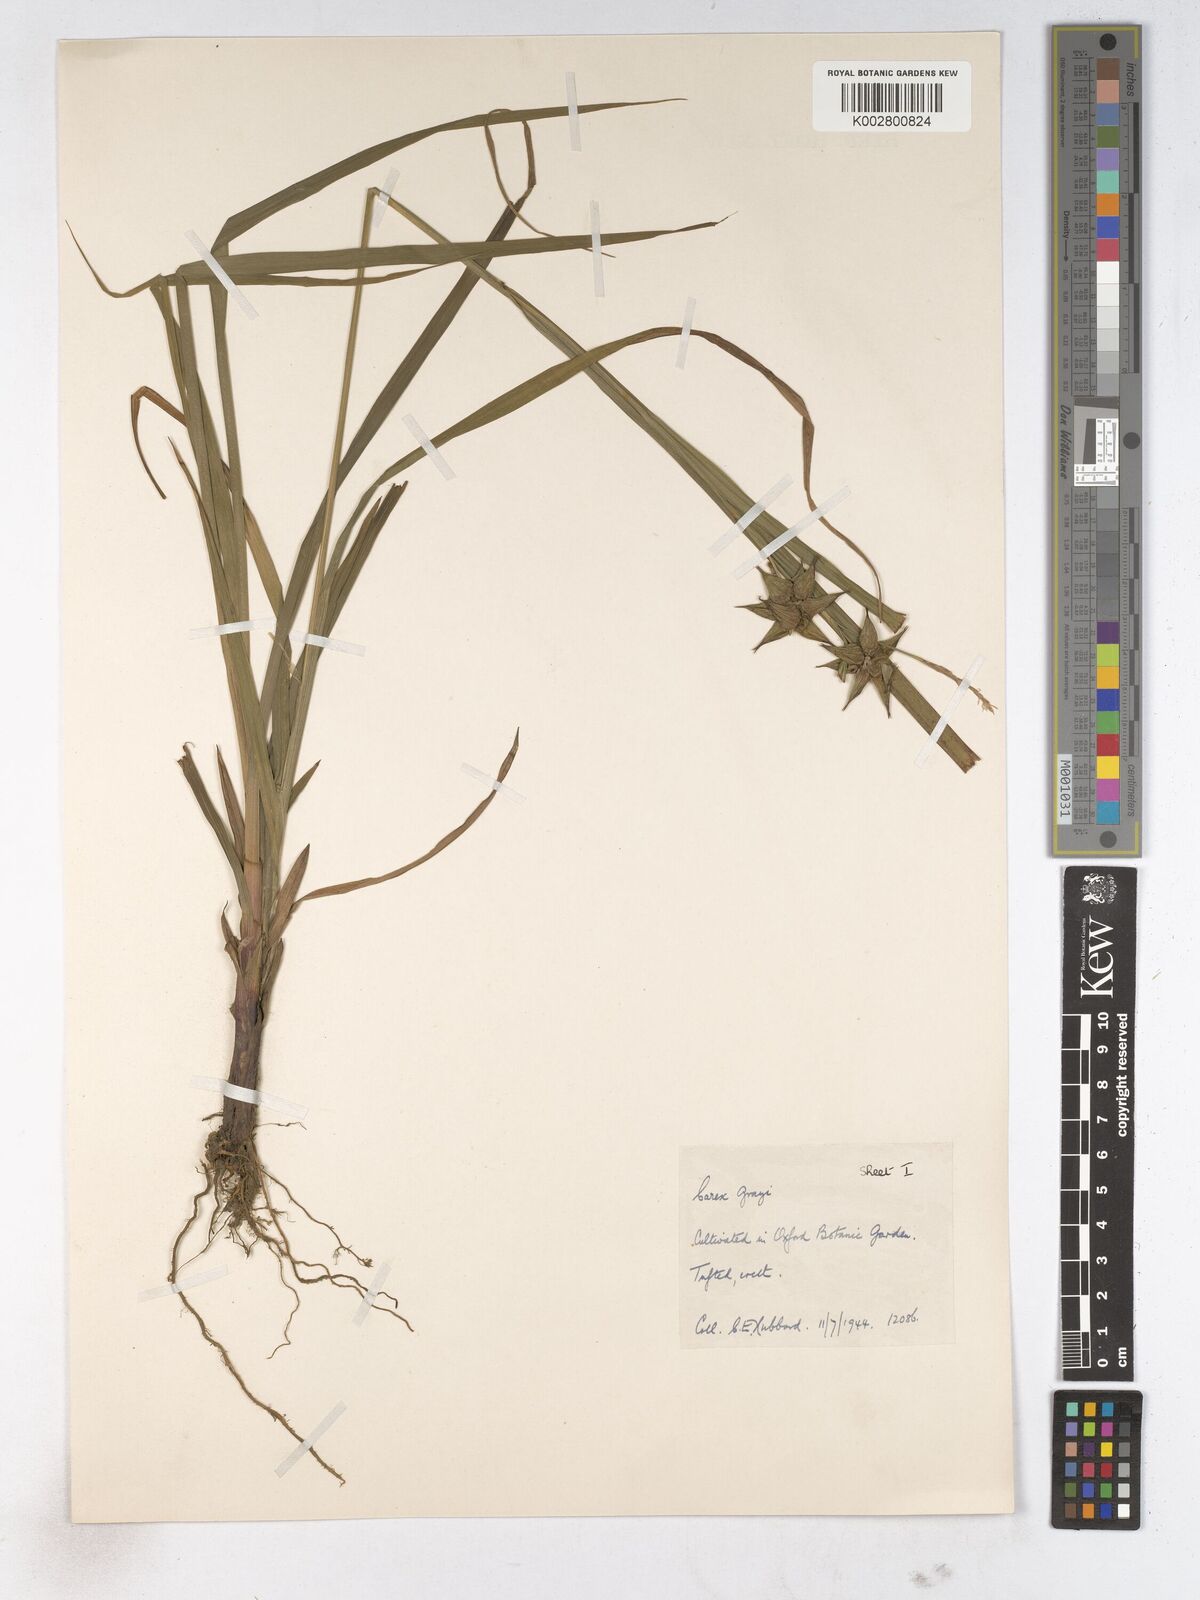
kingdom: Plantae
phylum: Tracheophyta
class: Liliopsida
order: Poales
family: Cyperaceae
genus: Carex
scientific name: Carex grayi
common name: Asa gray's sedge
